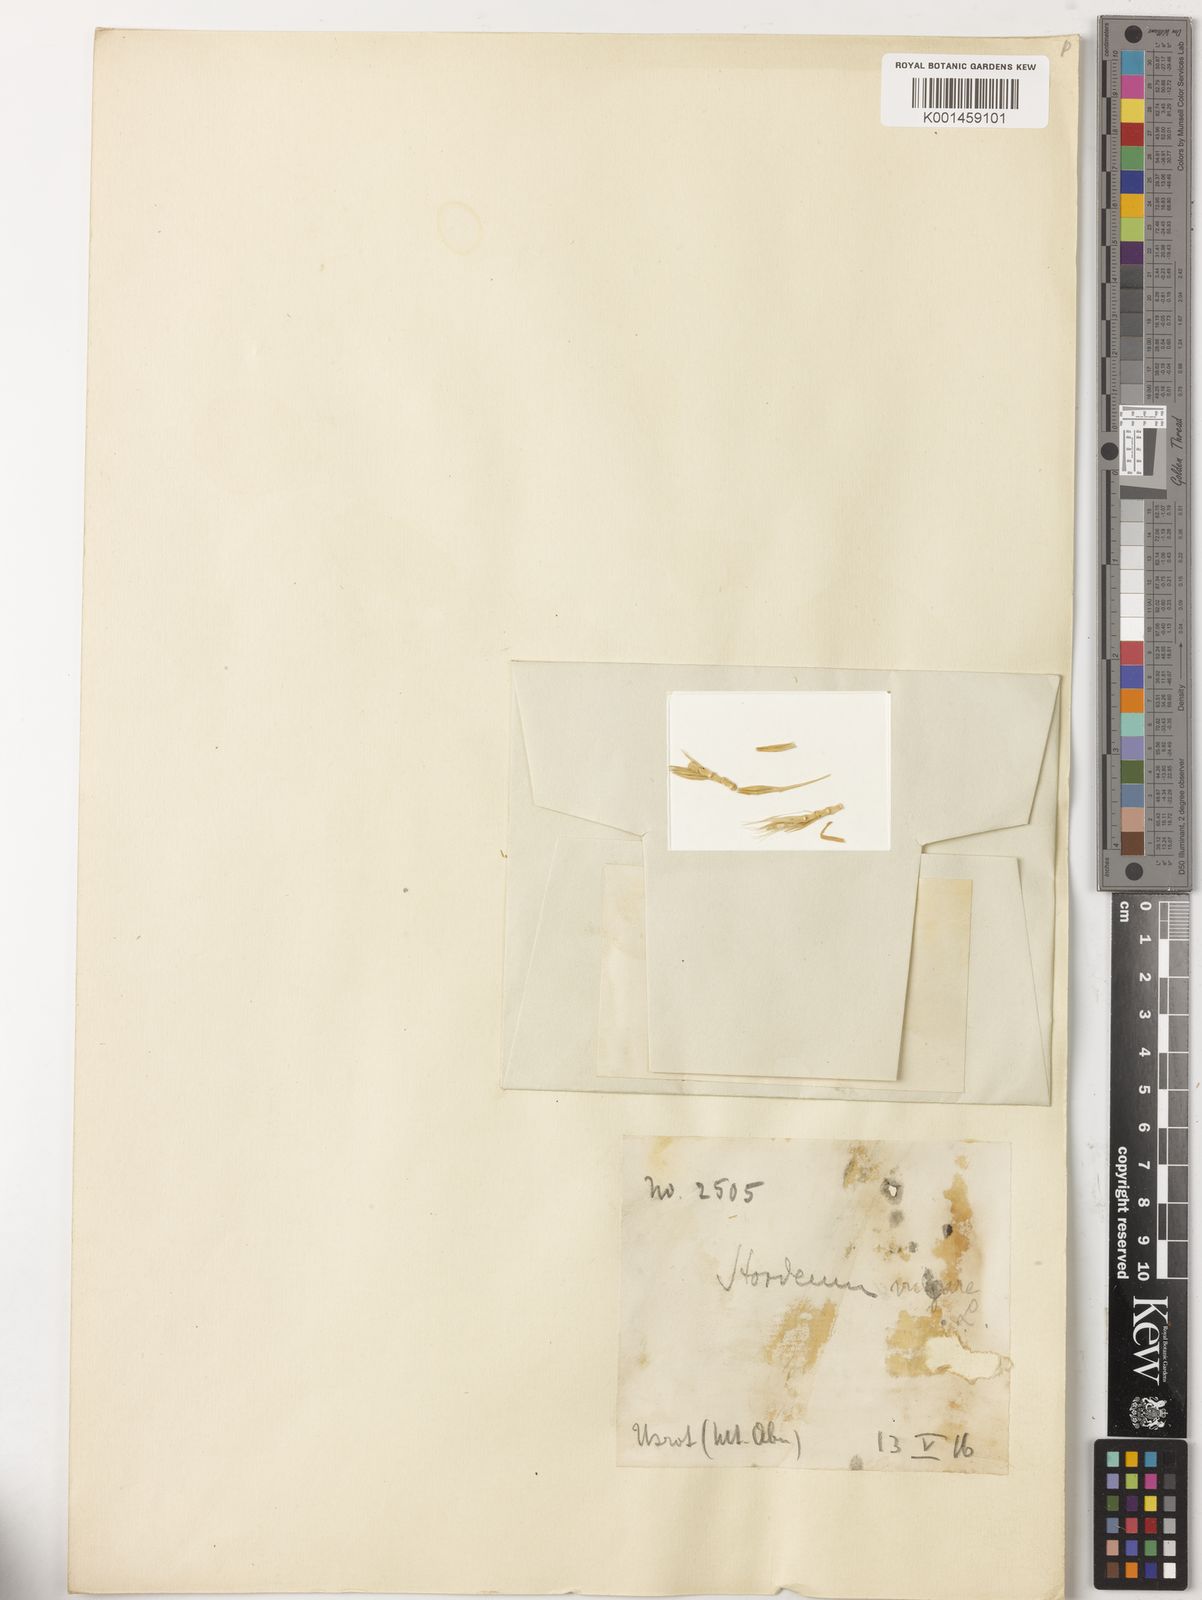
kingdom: Plantae
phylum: Tracheophyta
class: Liliopsida
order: Poales
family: Poaceae
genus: Hordeum
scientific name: Hordeum vulgare
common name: Common barley
